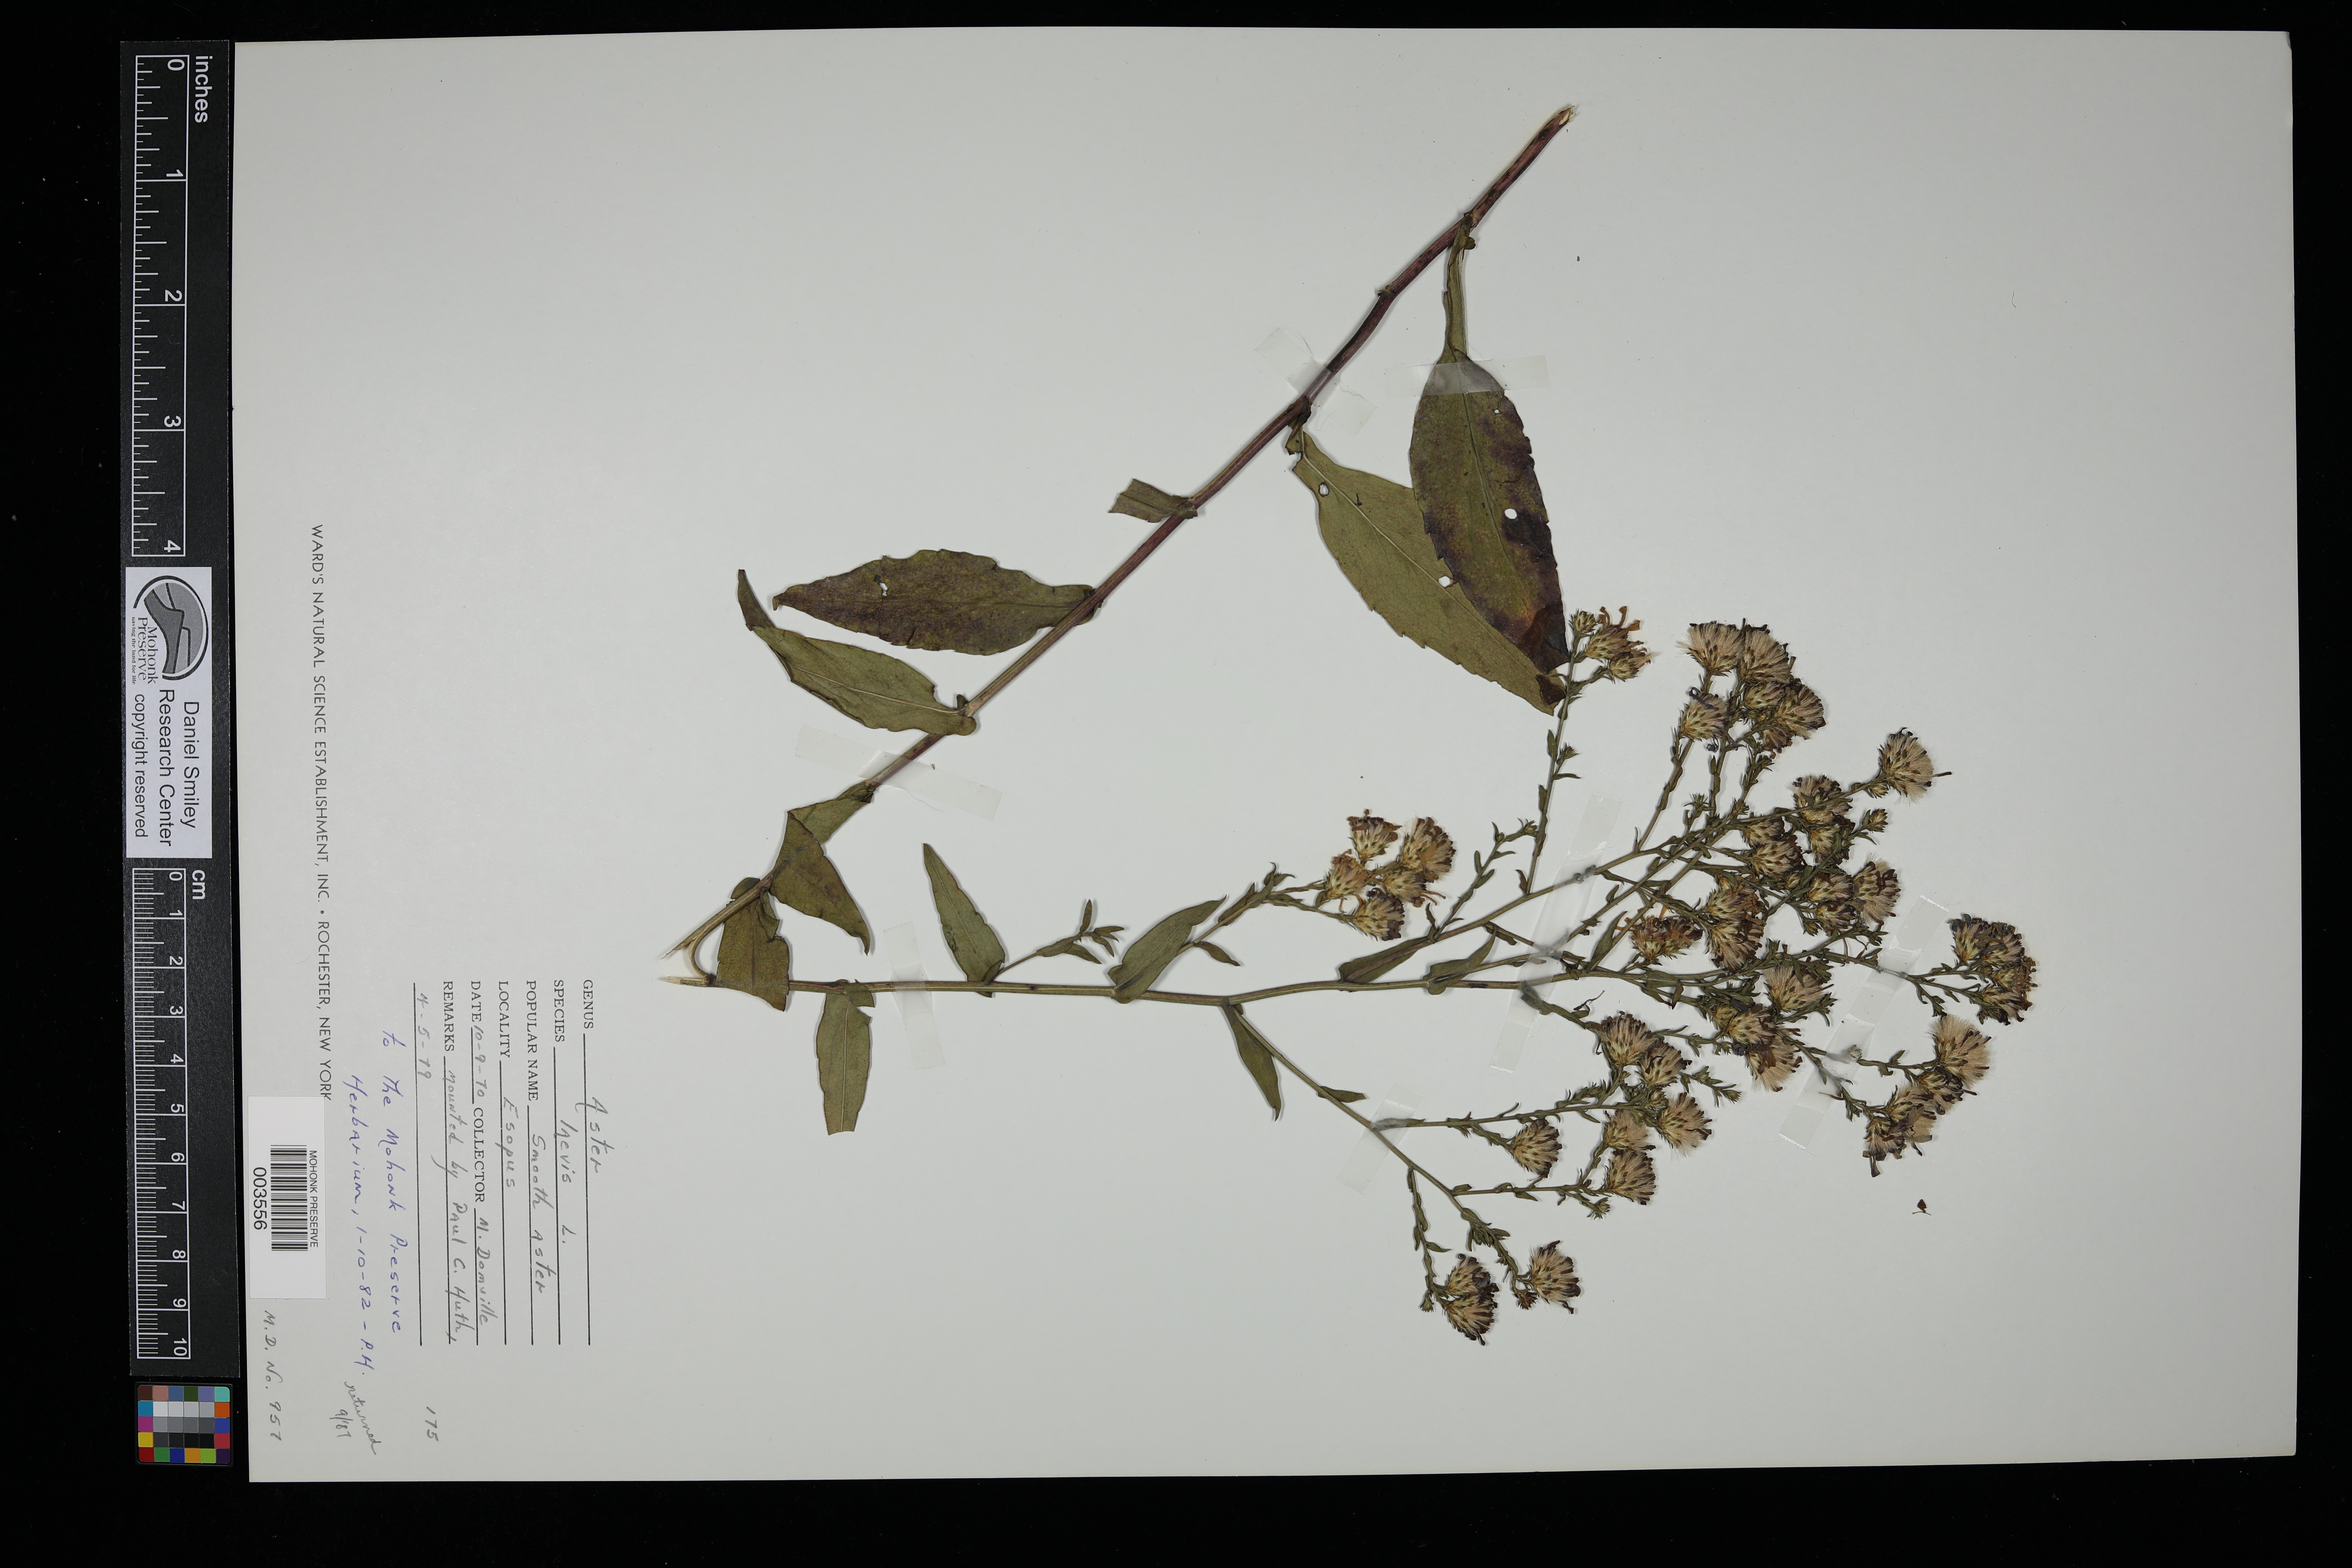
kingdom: Plantae
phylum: Tracheophyta
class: Magnoliopsida
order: Asterales
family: Asteraceae
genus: Symphyotrichum
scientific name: Symphyotrichum laeve
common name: Glaucous aster
